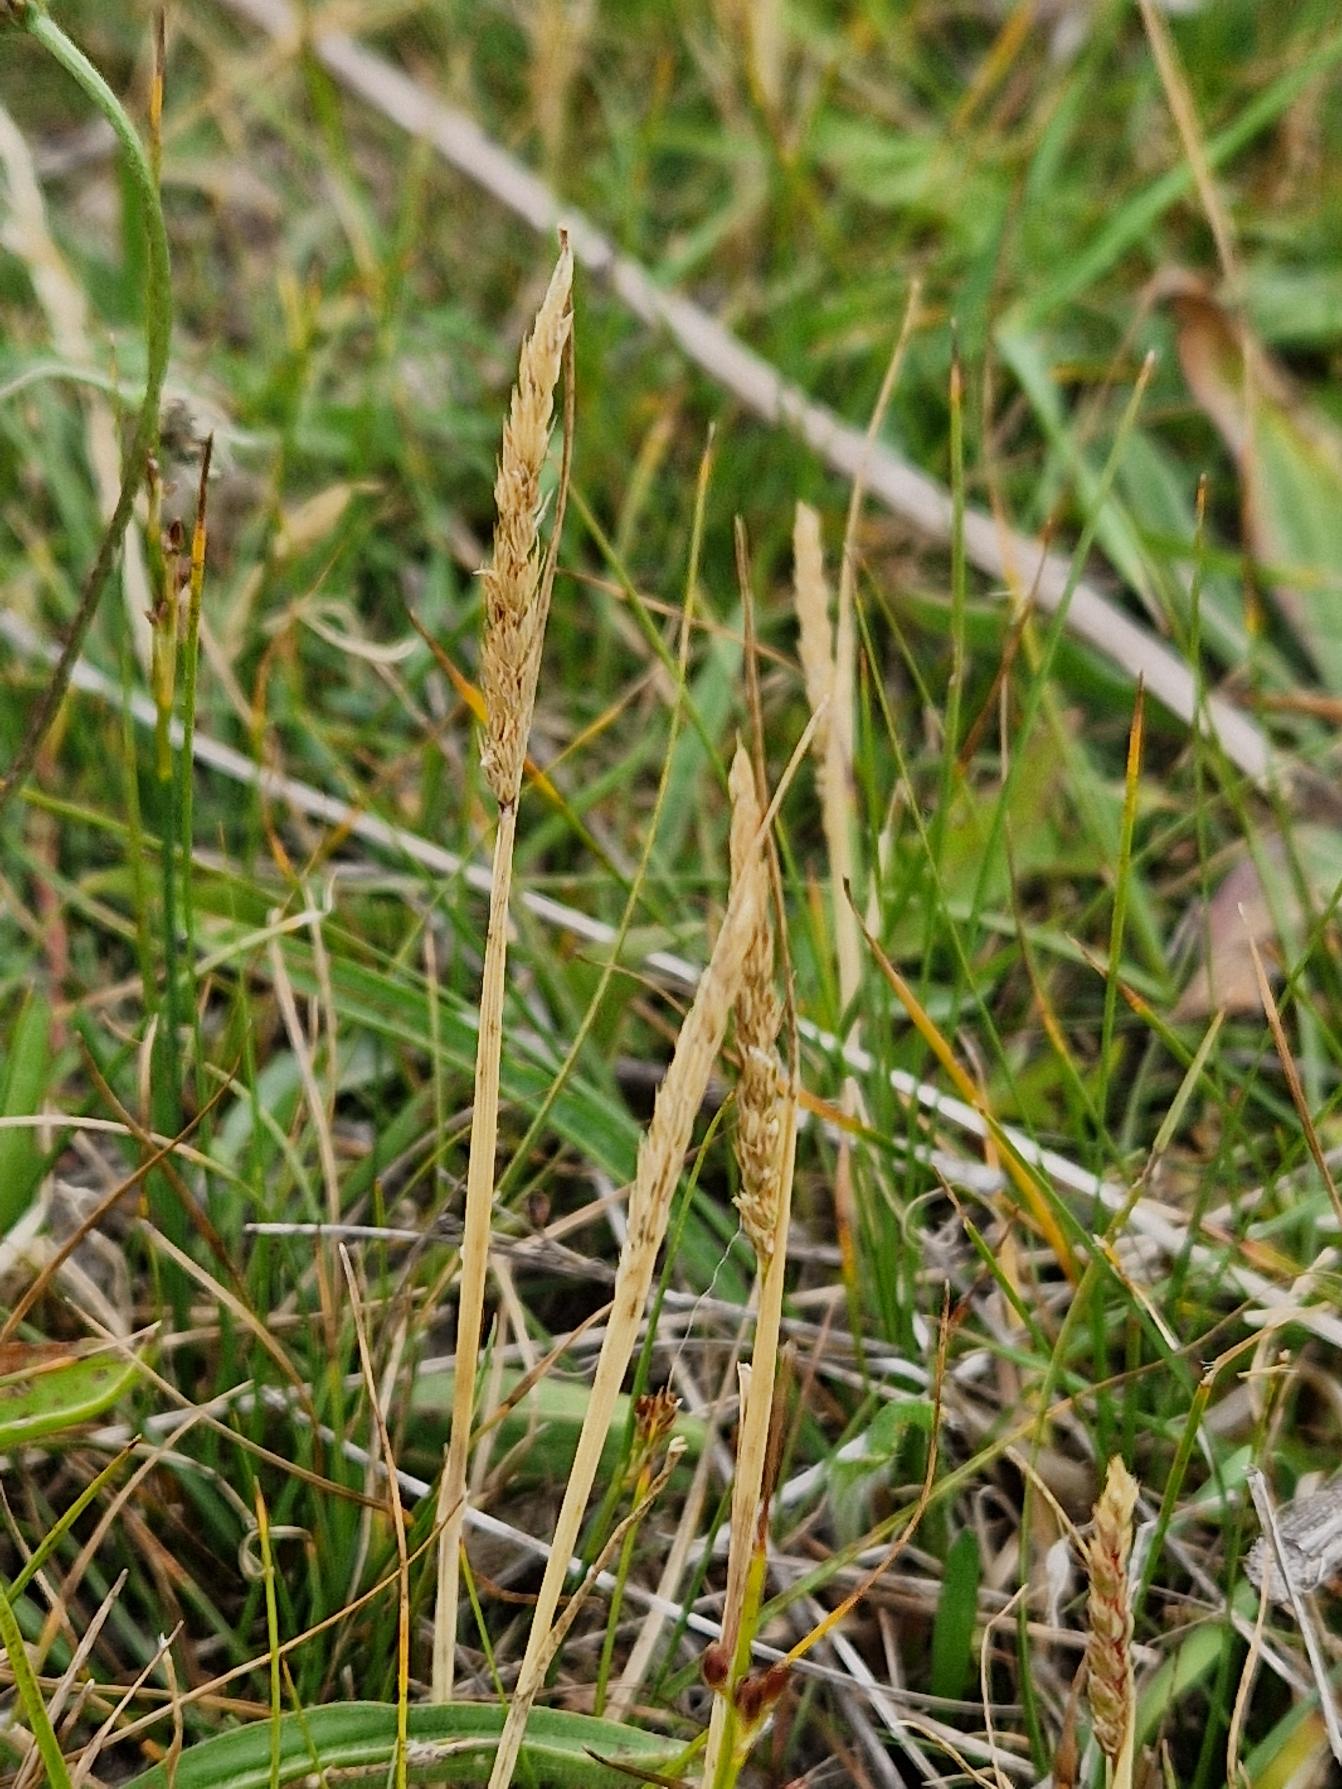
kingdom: Plantae
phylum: Tracheophyta
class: Liliopsida
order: Poales
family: Poaceae
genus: Cynosurus
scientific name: Cynosurus cristatus
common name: Kamgræs
